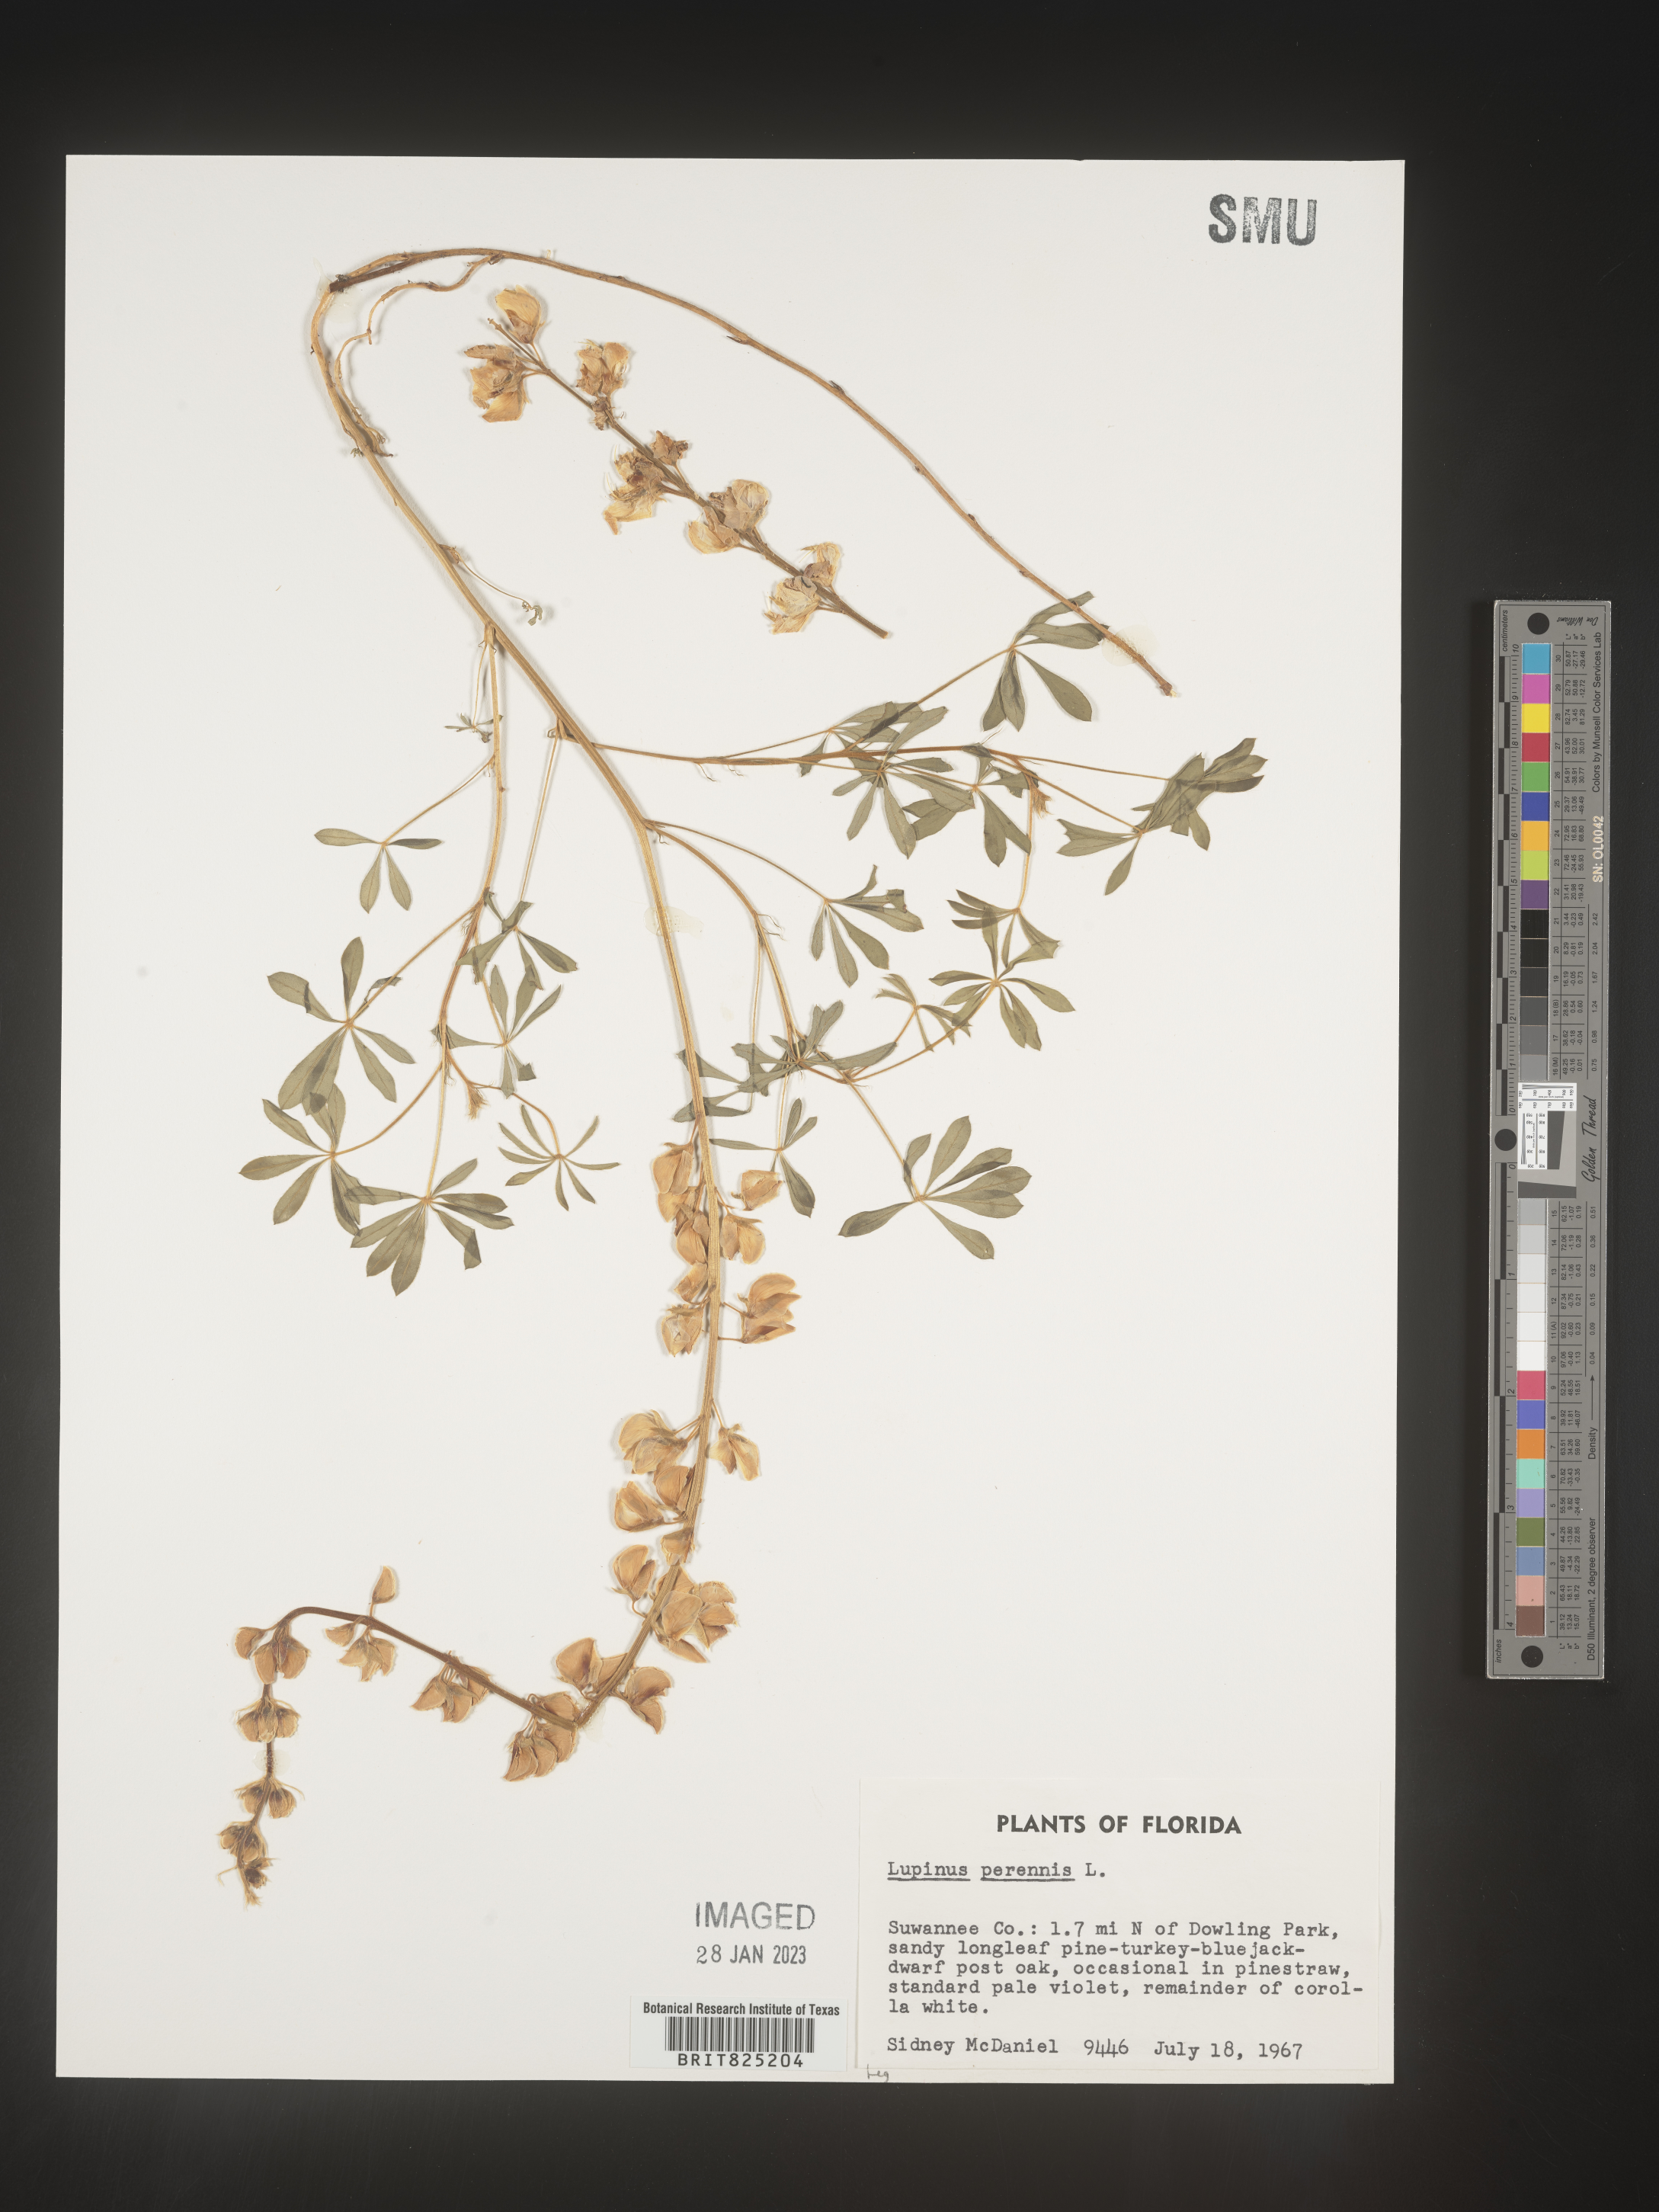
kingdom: Plantae
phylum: Tracheophyta
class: Magnoliopsida
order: Fabales
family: Fabaceae
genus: Lupinus
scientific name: Lupinus perennis
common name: Sundial lupine
